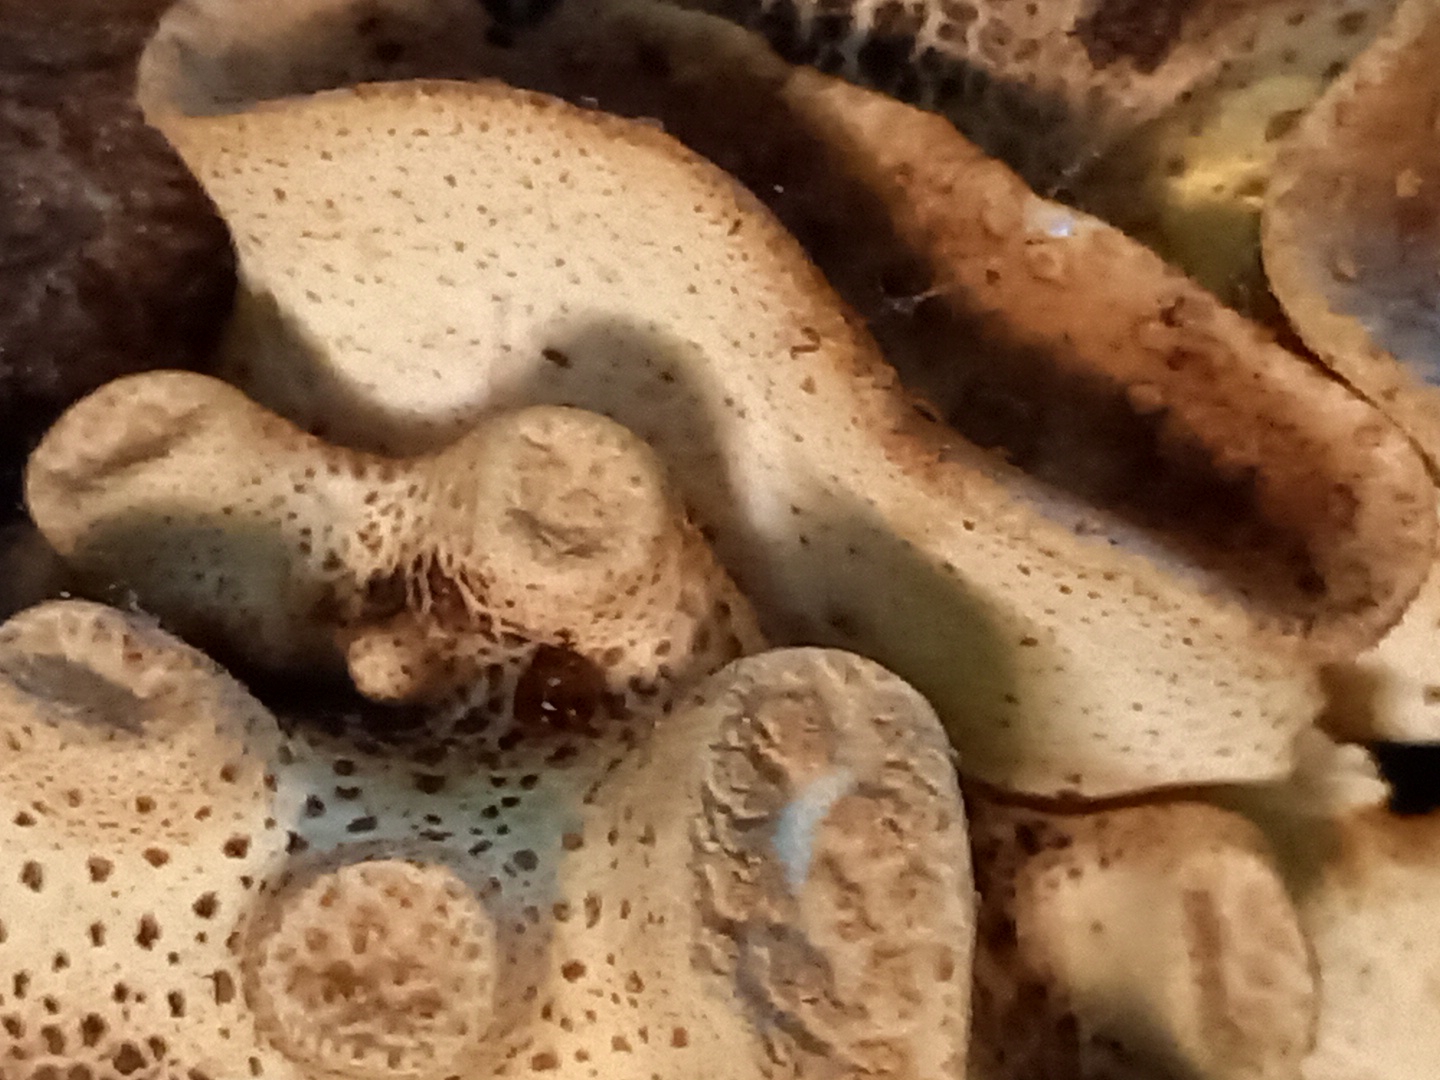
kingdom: Fungi
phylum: Basidiomycota
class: Agaricomycetes
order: Polyporales
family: Polyporaceae
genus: Cerioporus
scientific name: Cerioporus squamosus
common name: skællet stilkporesvamp
